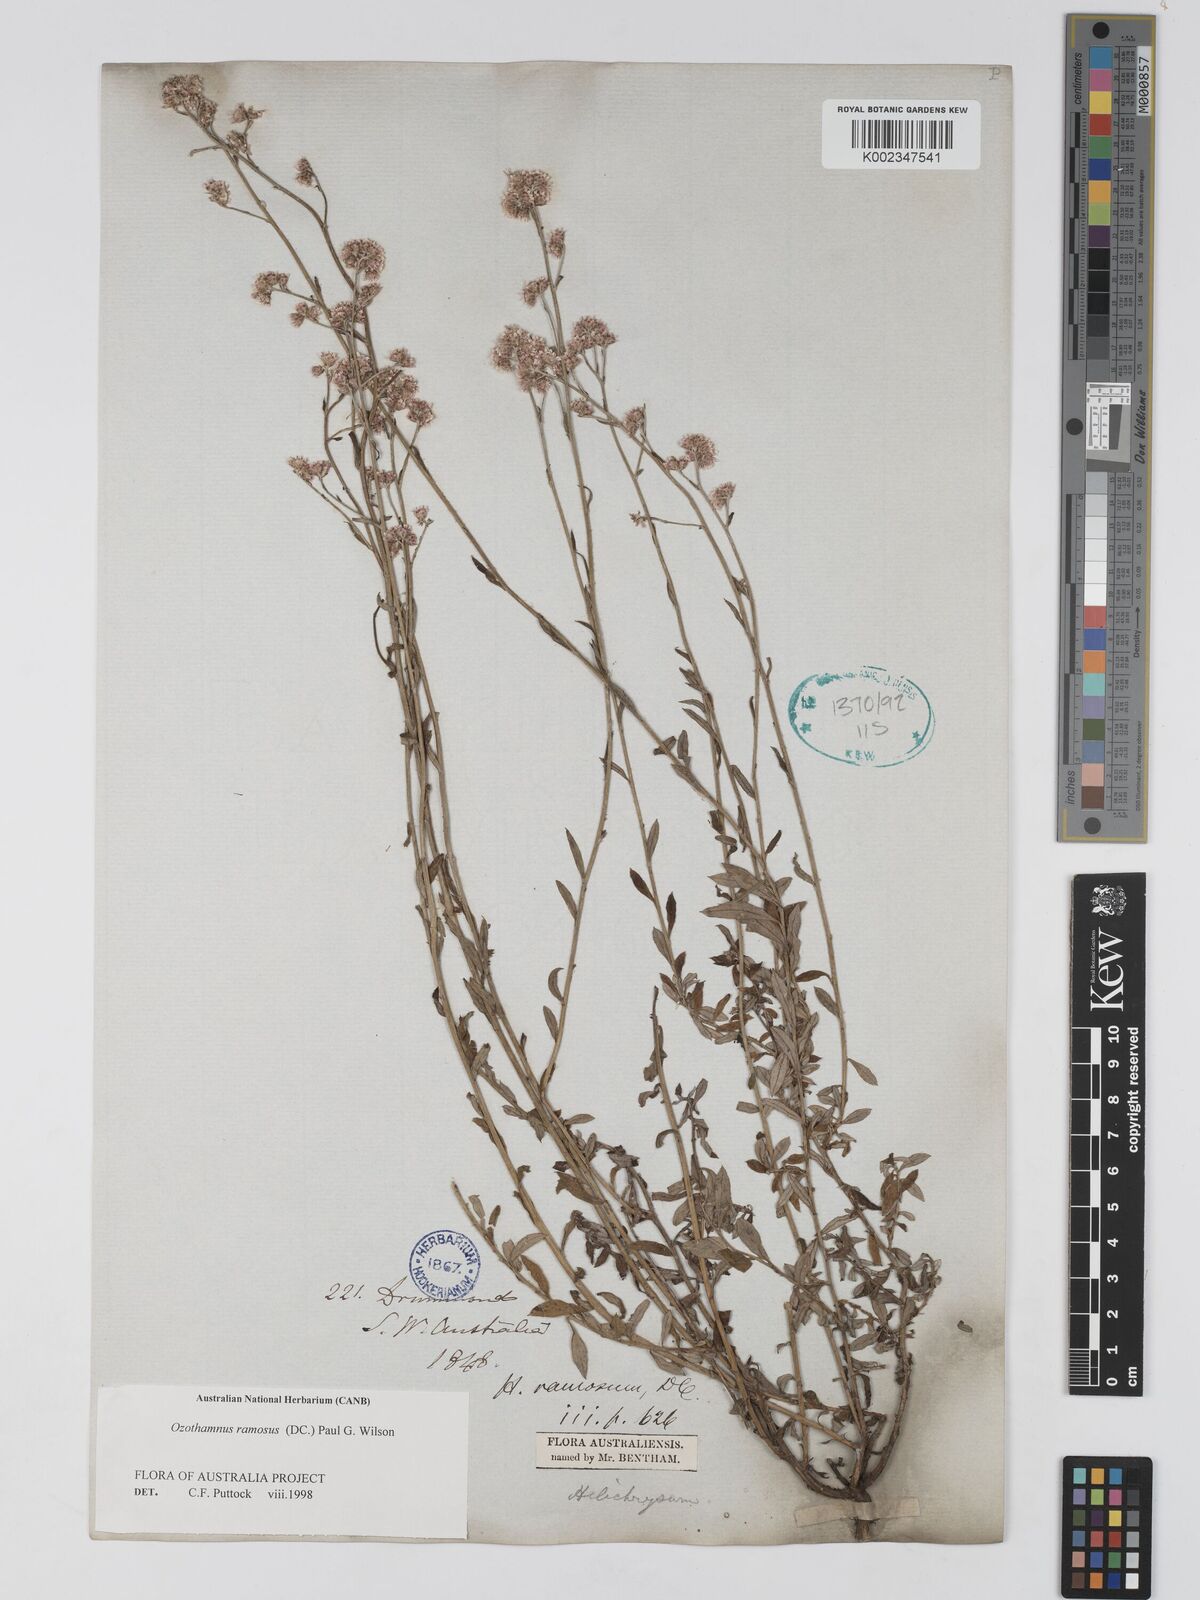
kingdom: Plantae
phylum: Tracheophyta
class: Magnoliopsida
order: Asterales
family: Asteraceae
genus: Pithocarpa
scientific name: Pithocarpa ramosa
